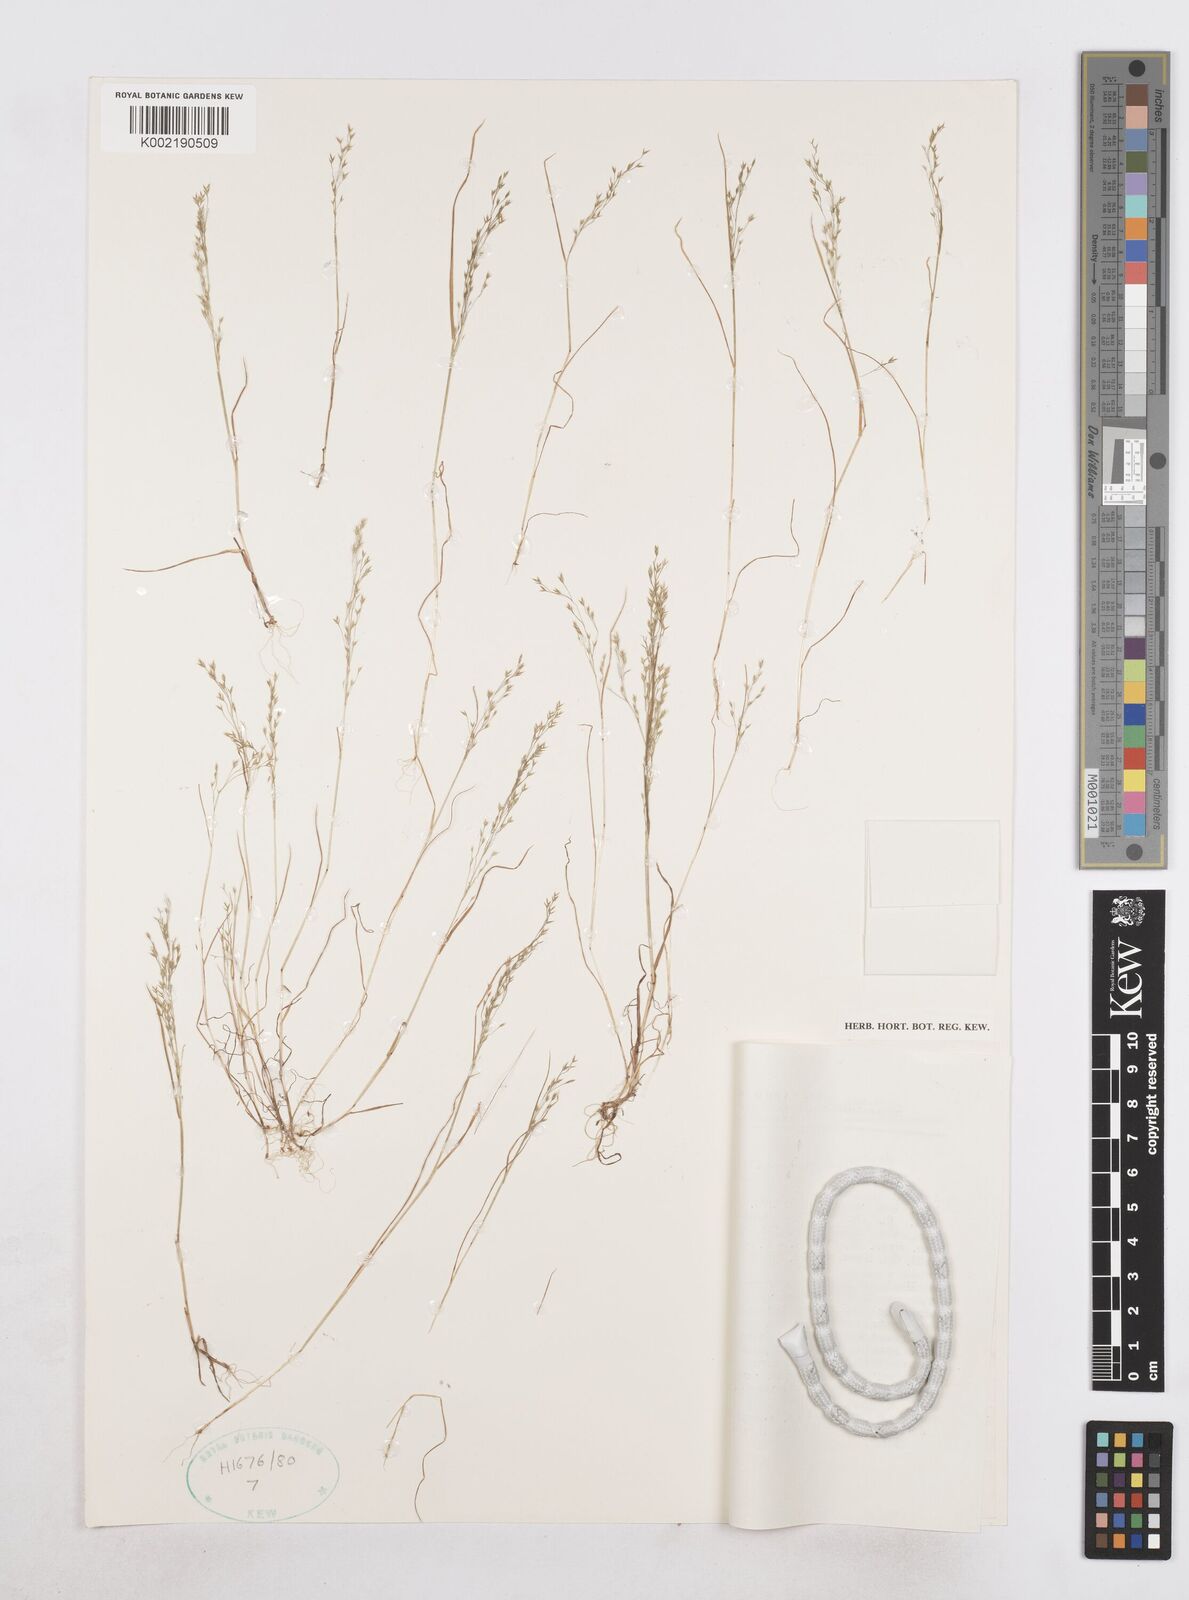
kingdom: Plantae
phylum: Tracheophyta
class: Liliopsida
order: Poales
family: Poaceae
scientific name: Poaceae
